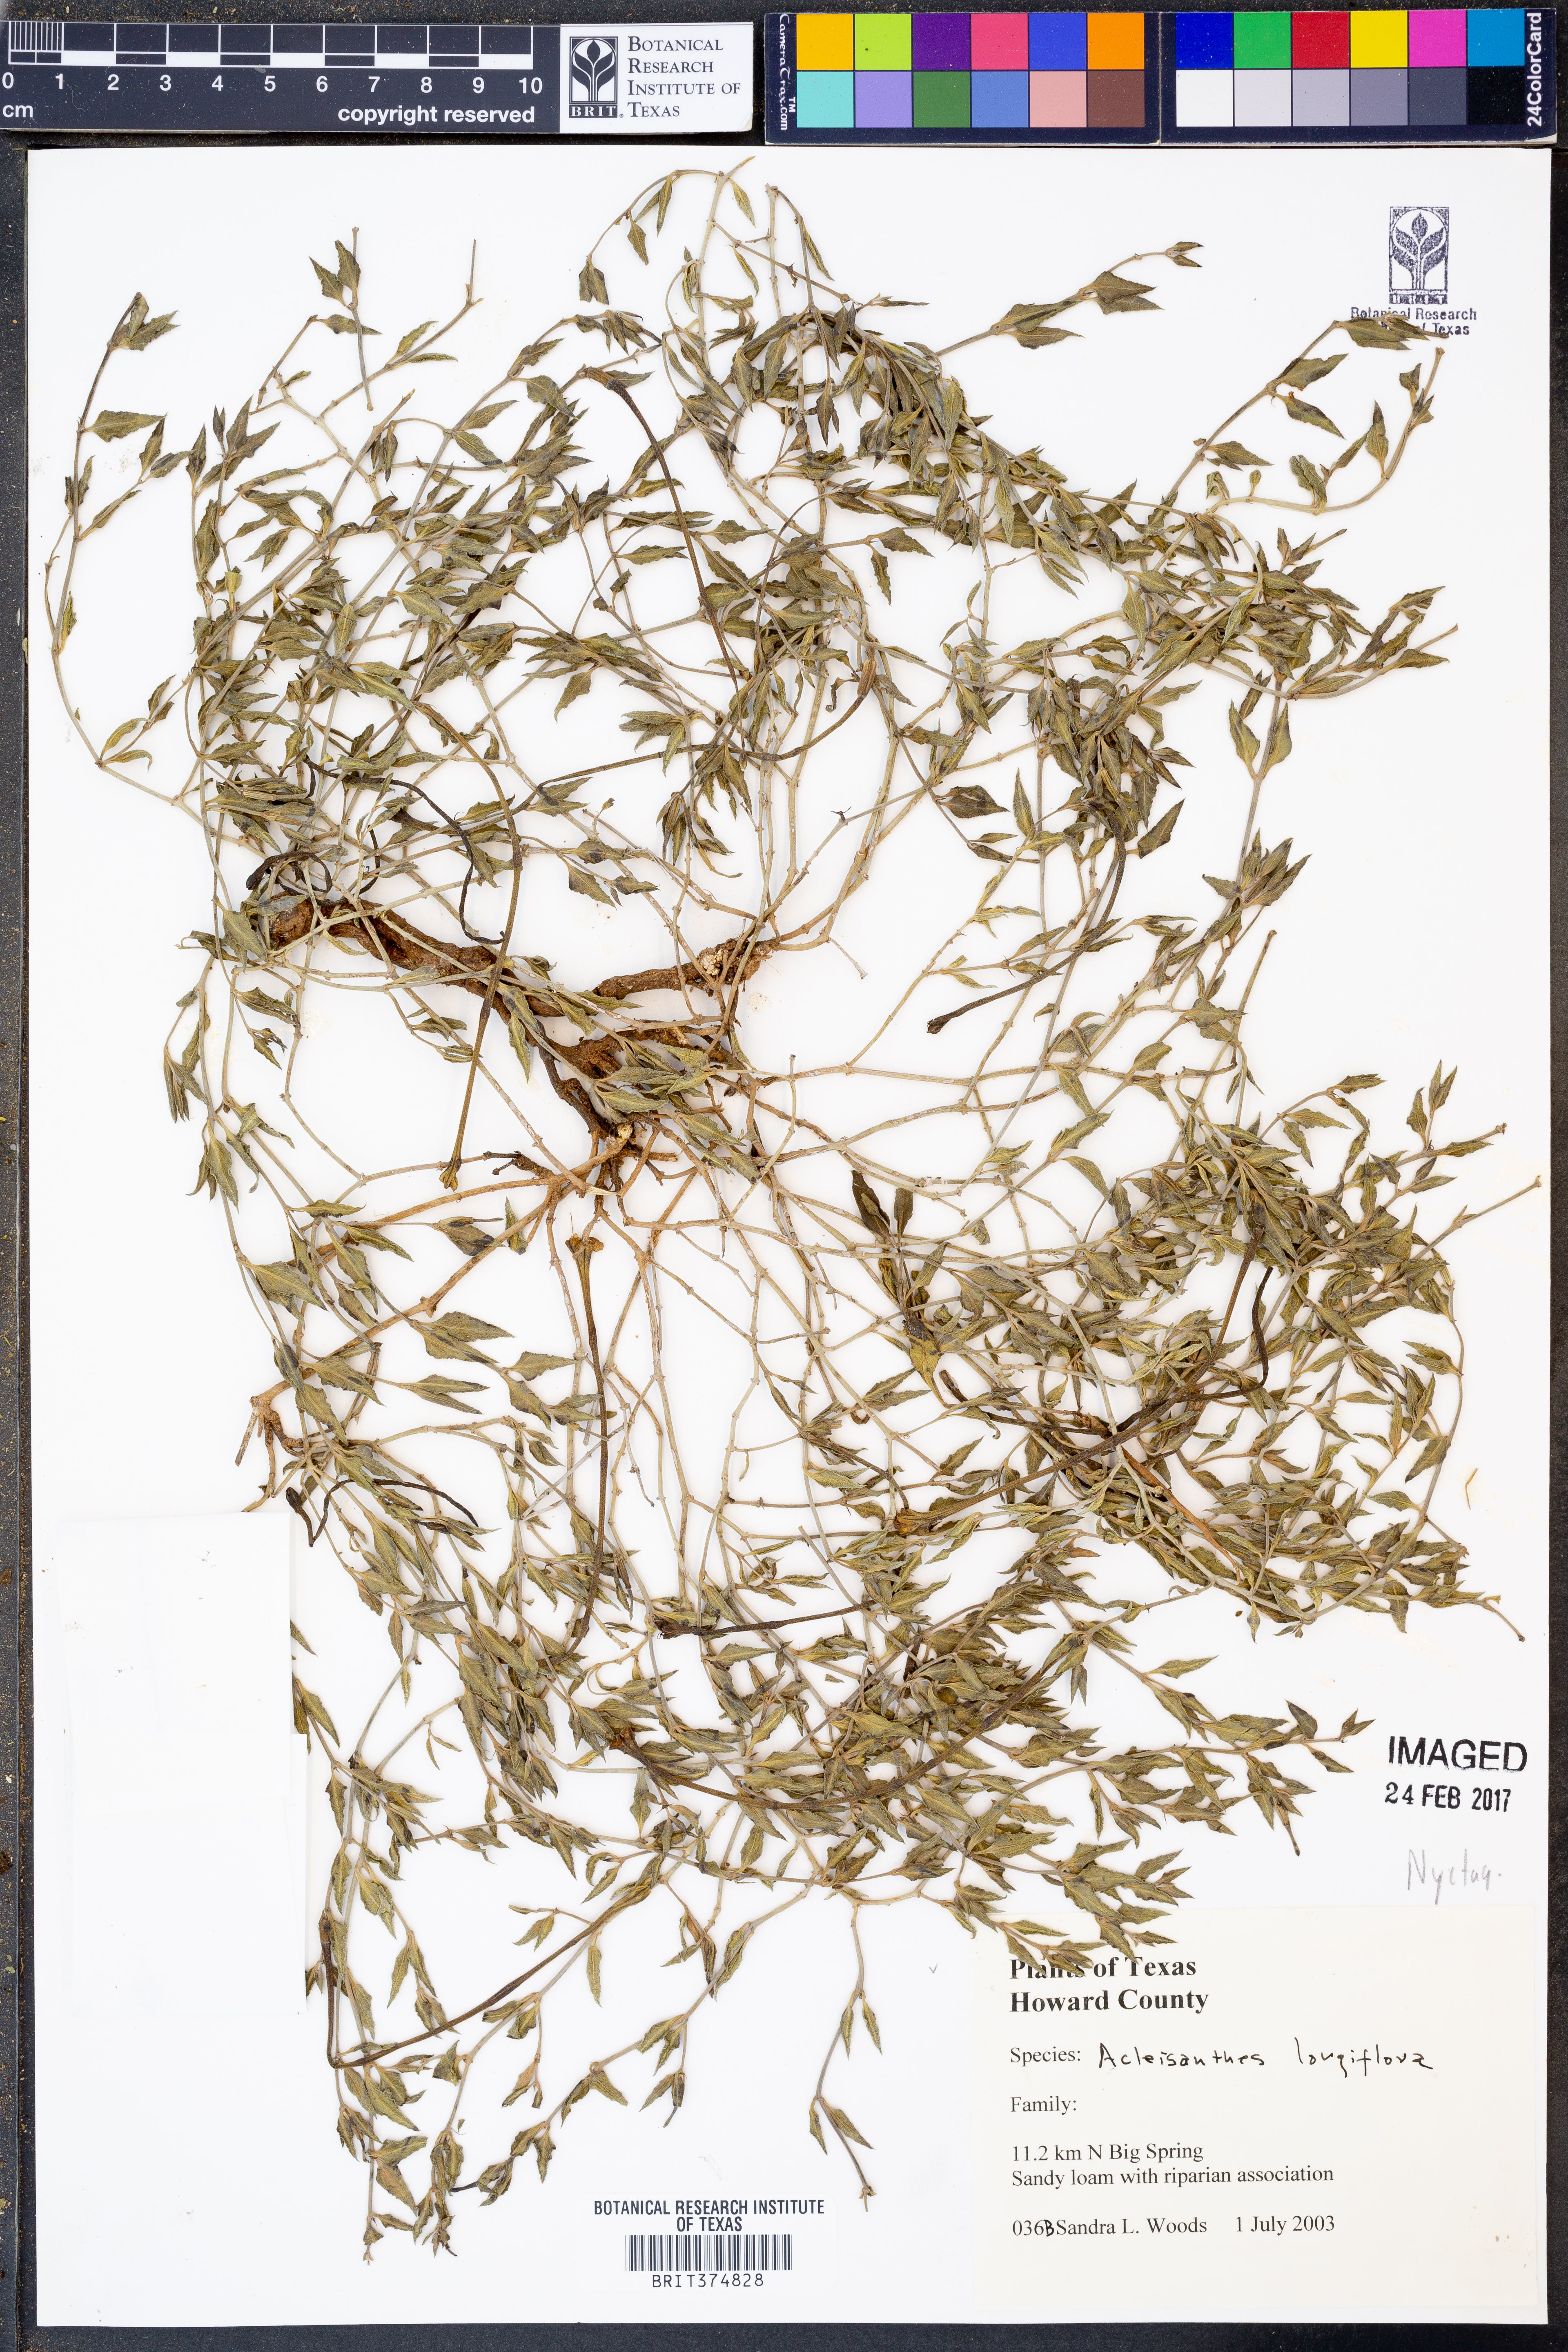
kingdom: Plantae
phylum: Tracheophyta
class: Magnoliopsida
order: Caryophyllales
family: Nyctaginaceae
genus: Acleisanthes
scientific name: Acleisanthes longiflora
